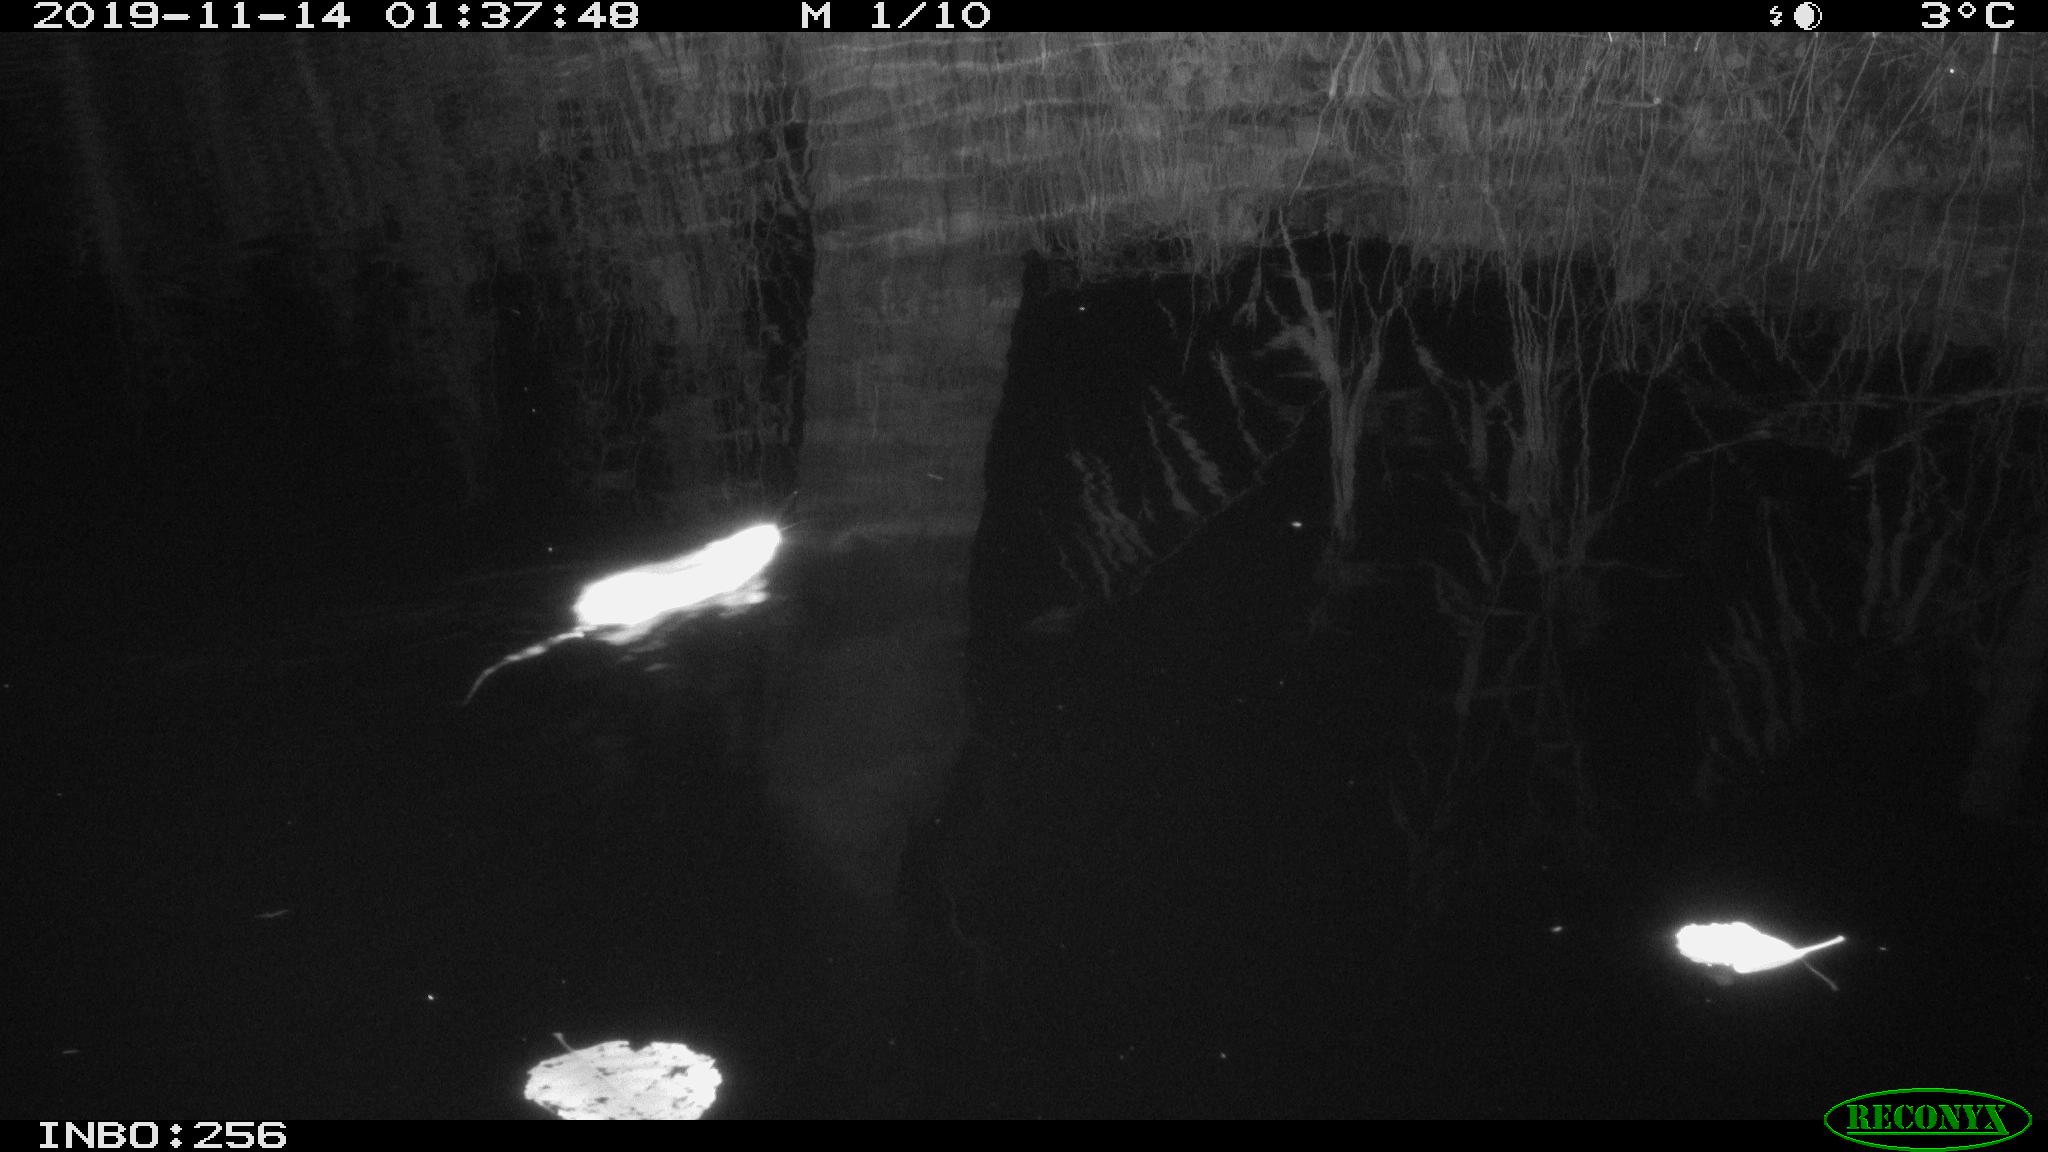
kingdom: Animalia
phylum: Chordata
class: Mammalia
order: Rodentia
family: Muridae
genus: Rattus
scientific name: Rattus norvegicus
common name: Brown rat
